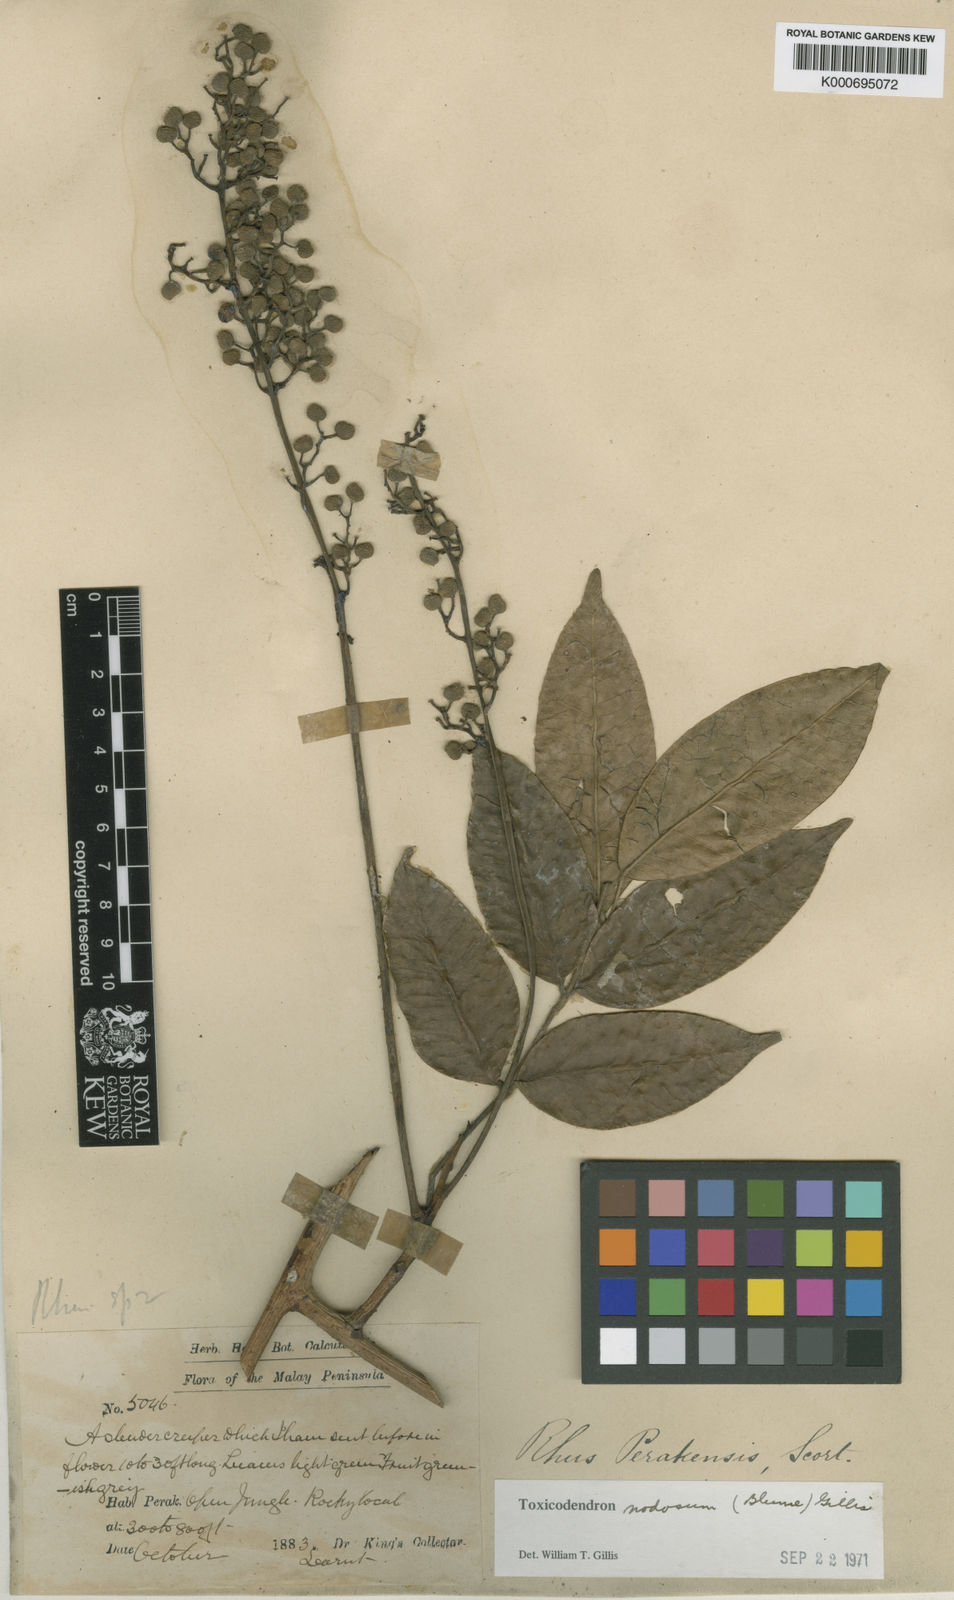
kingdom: Plantae
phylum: Tracheophyta
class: Magnoliopsida
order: Sapindales
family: Anacardiaceae
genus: Toxicodendron
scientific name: Toxicodendron nodosum
